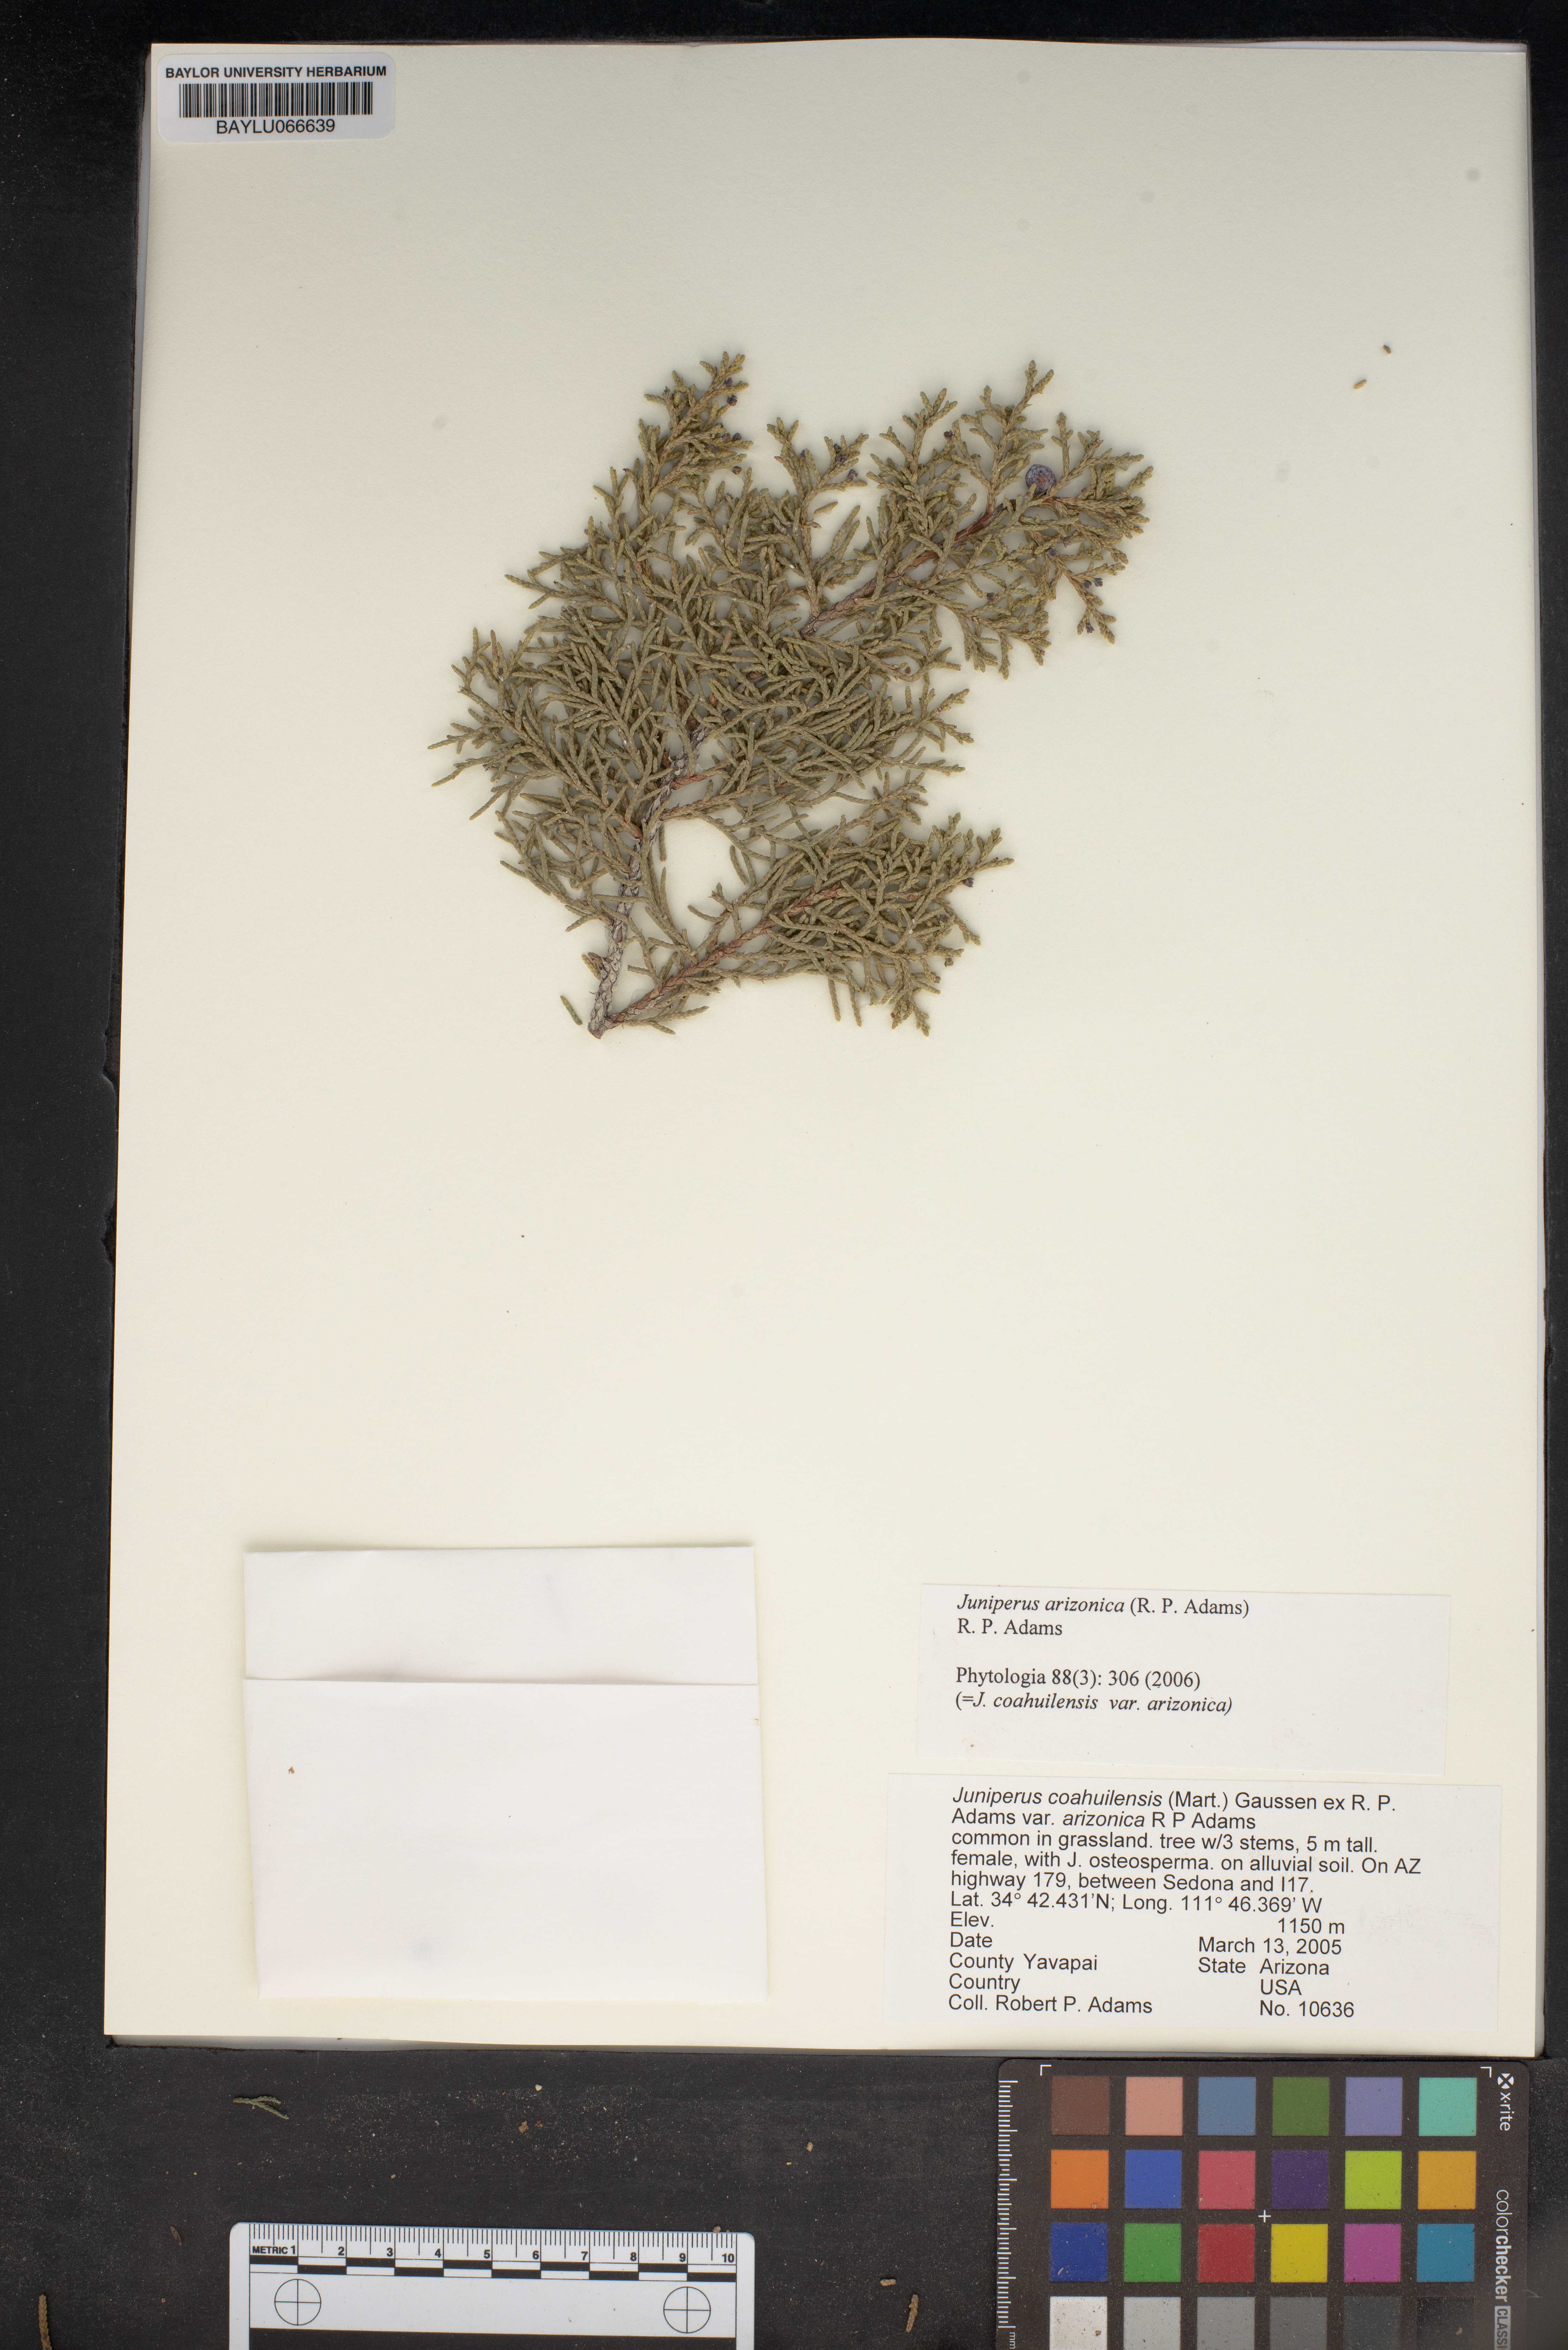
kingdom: Plantae
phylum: Tracheophyta
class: Pinopsida
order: Pinales
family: Cupressaceae
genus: Juniperus
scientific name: Juniperus arizonica
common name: Arizona juniper
